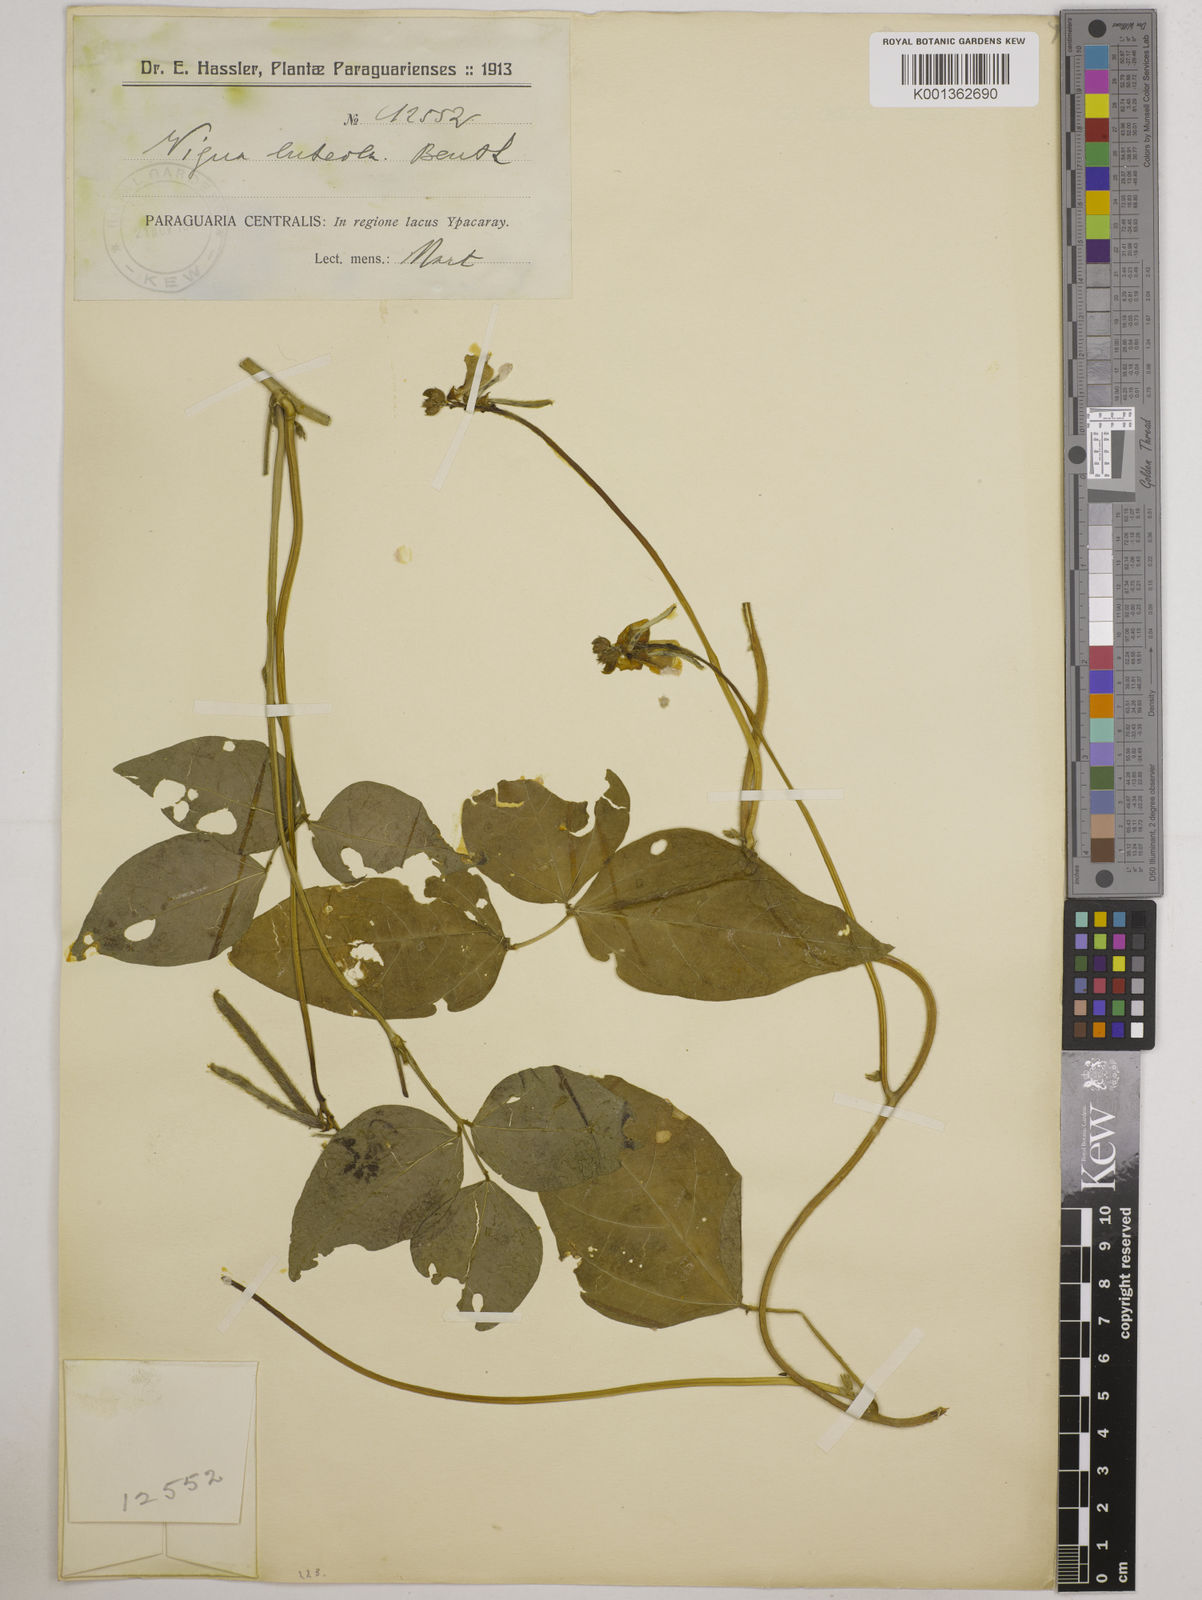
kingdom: Plantae
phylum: Tracheophyta
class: Magnoliopsida
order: Fabales
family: Fabaceae
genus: Vigna
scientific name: Vigna luteola
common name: Hairypod cowpea
